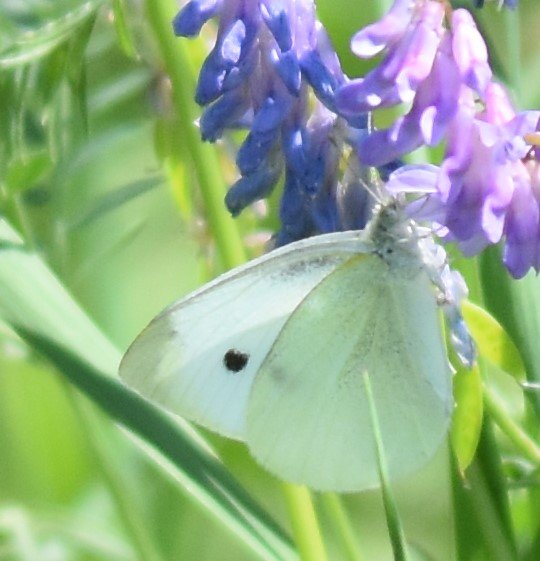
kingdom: Animalia
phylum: Arthropoda
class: Insecta
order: Lepidoptera
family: Pieridae
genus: Pieris
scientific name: Pieris rapae
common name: Cabbage White
